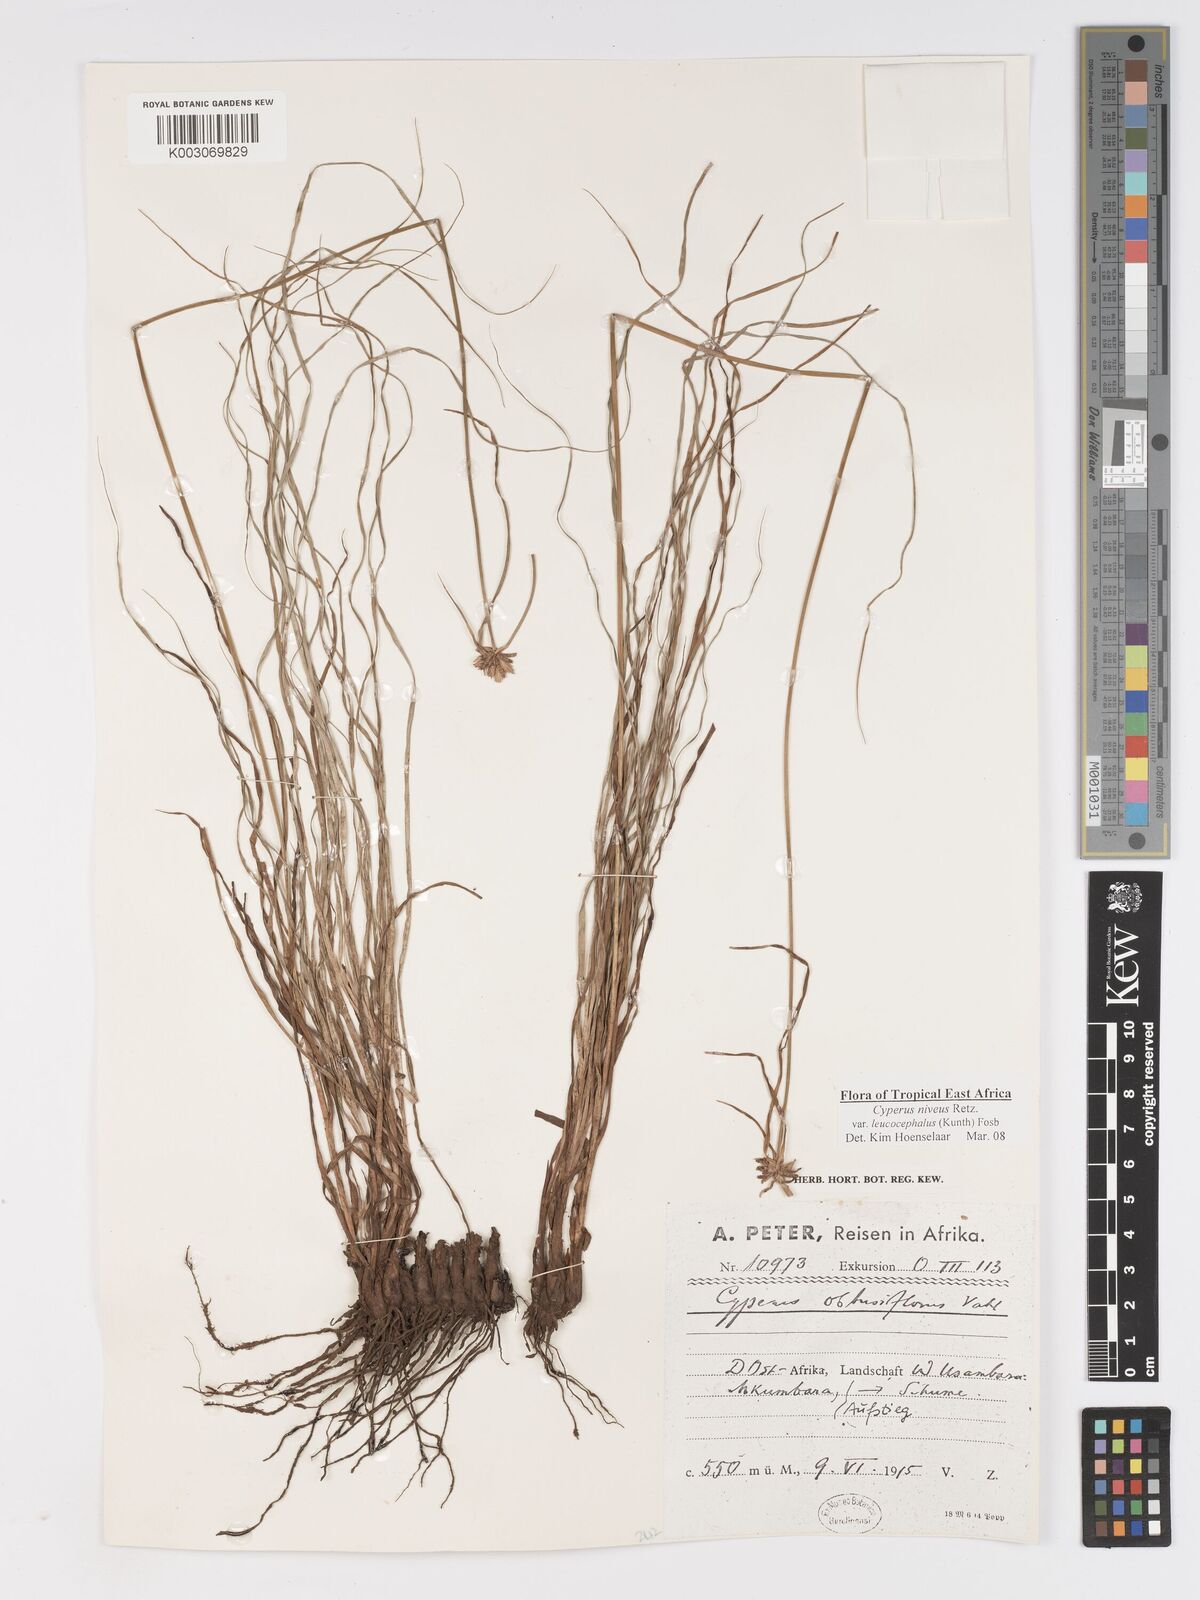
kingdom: Plantae
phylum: Tracheophyta
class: Liliopsida
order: Poales
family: Cyperaceae
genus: Cyperus
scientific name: Cyperus niveus
